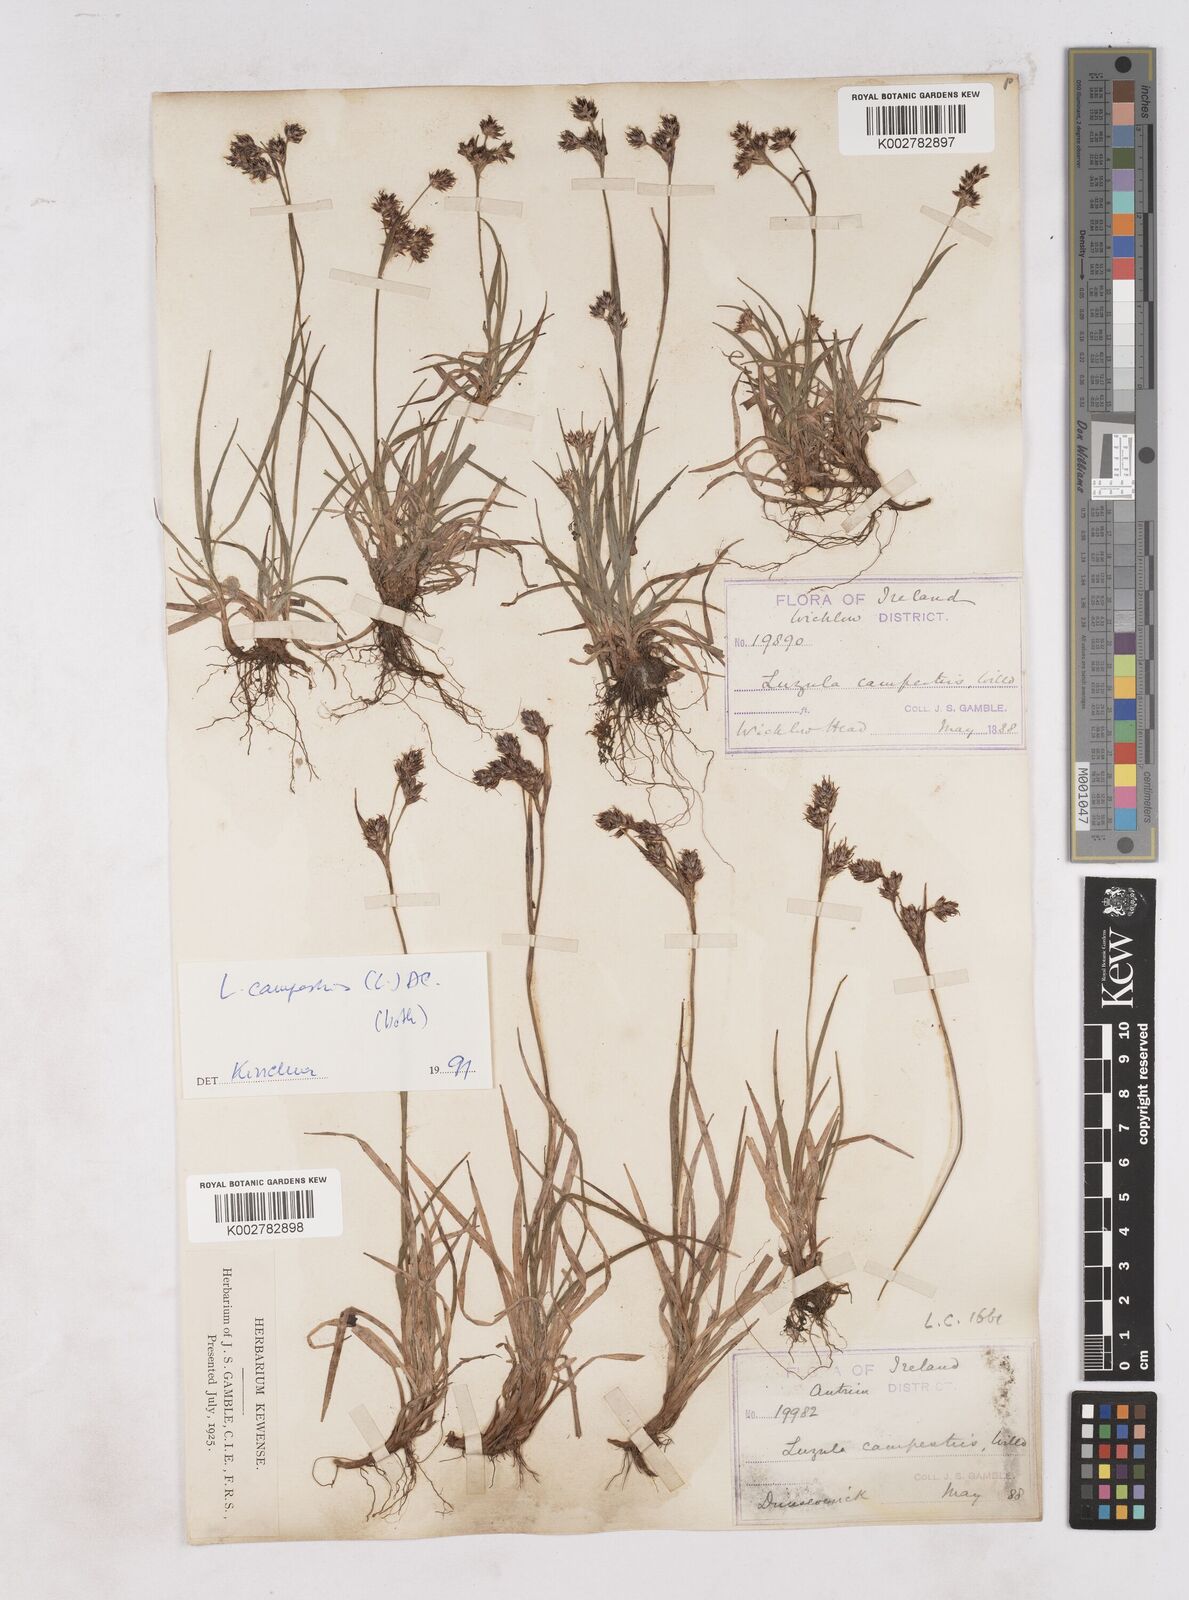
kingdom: Plantae
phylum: Tracheophyta
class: Liliopsida
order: Poales
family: Juncaceae
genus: Luzula
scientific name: Luzula campestris
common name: Field wood-rush
